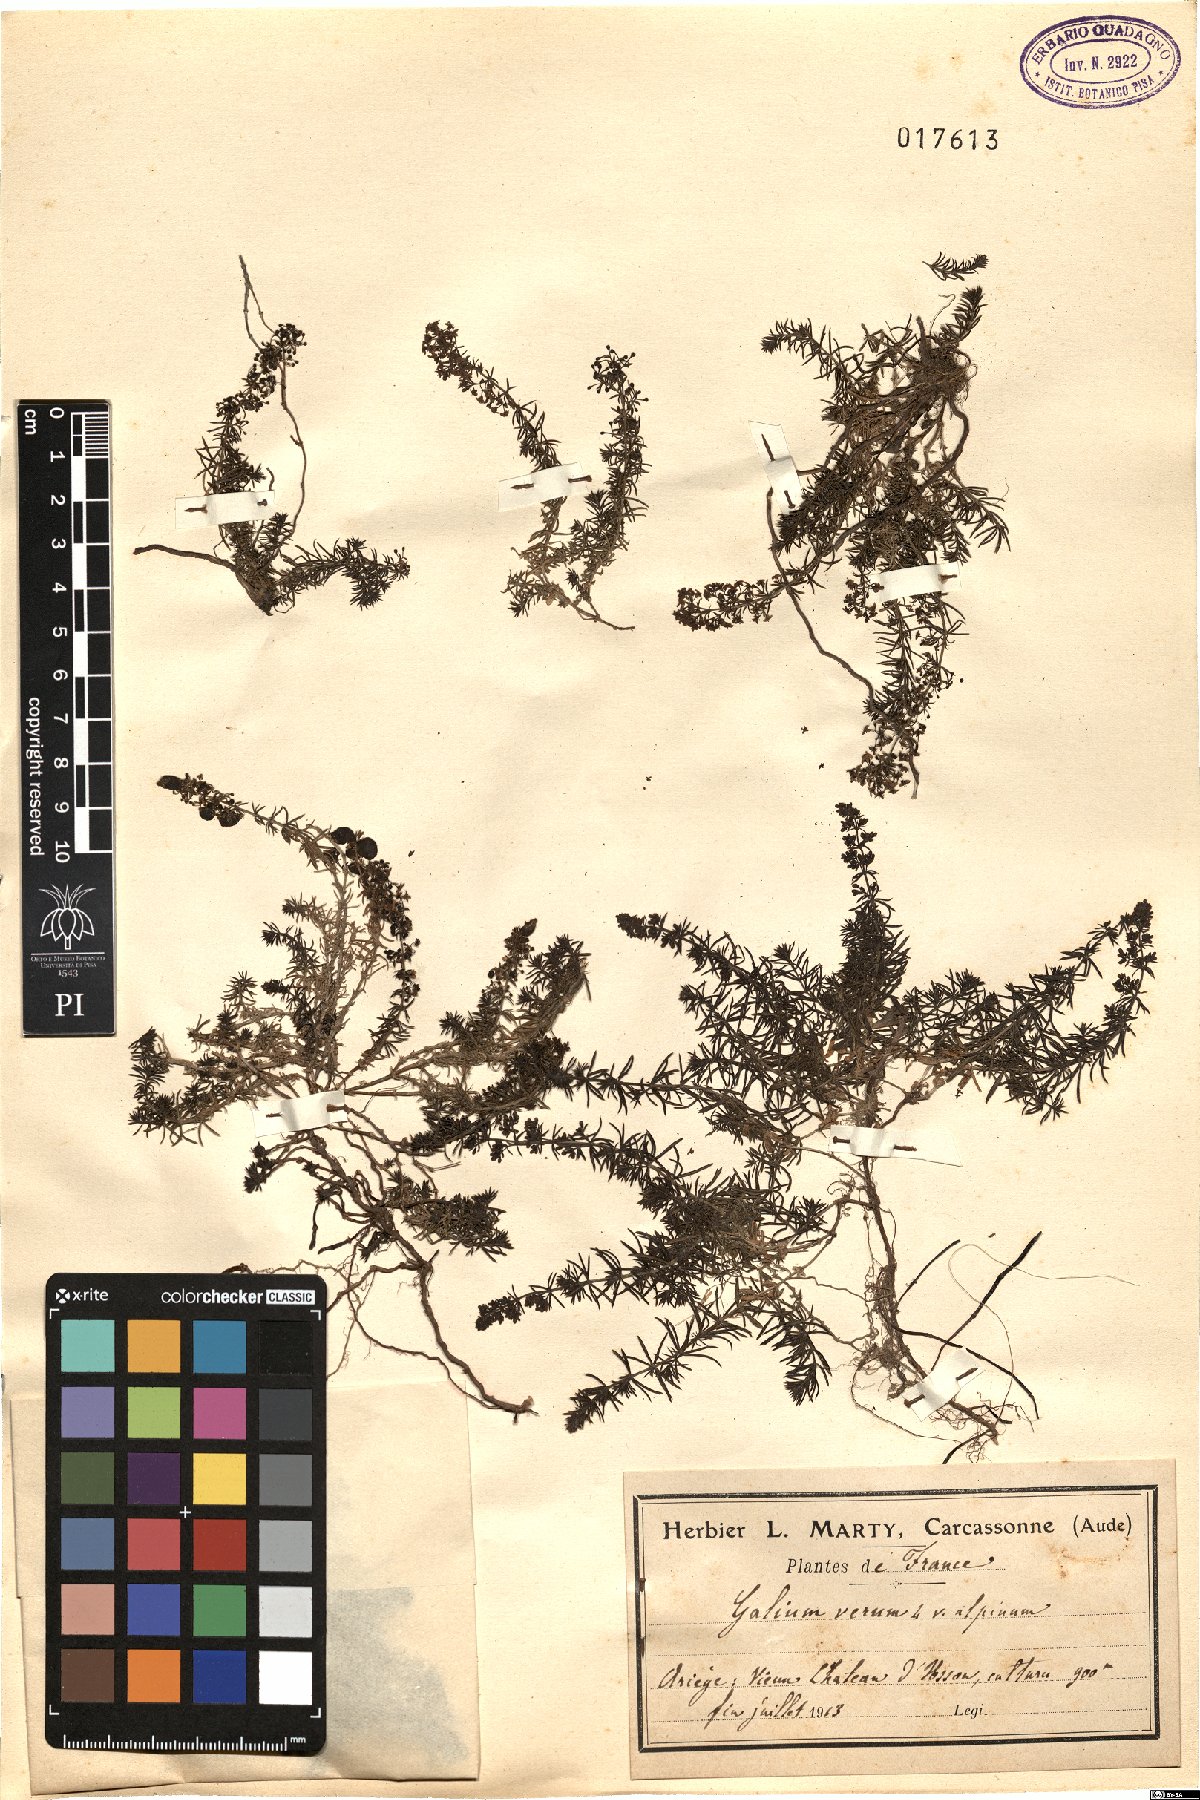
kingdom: Plantae
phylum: Tracheophyta
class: Magnoliopsida
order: Gentianales
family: Rubiaceae
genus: Galium
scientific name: Galium saurense
